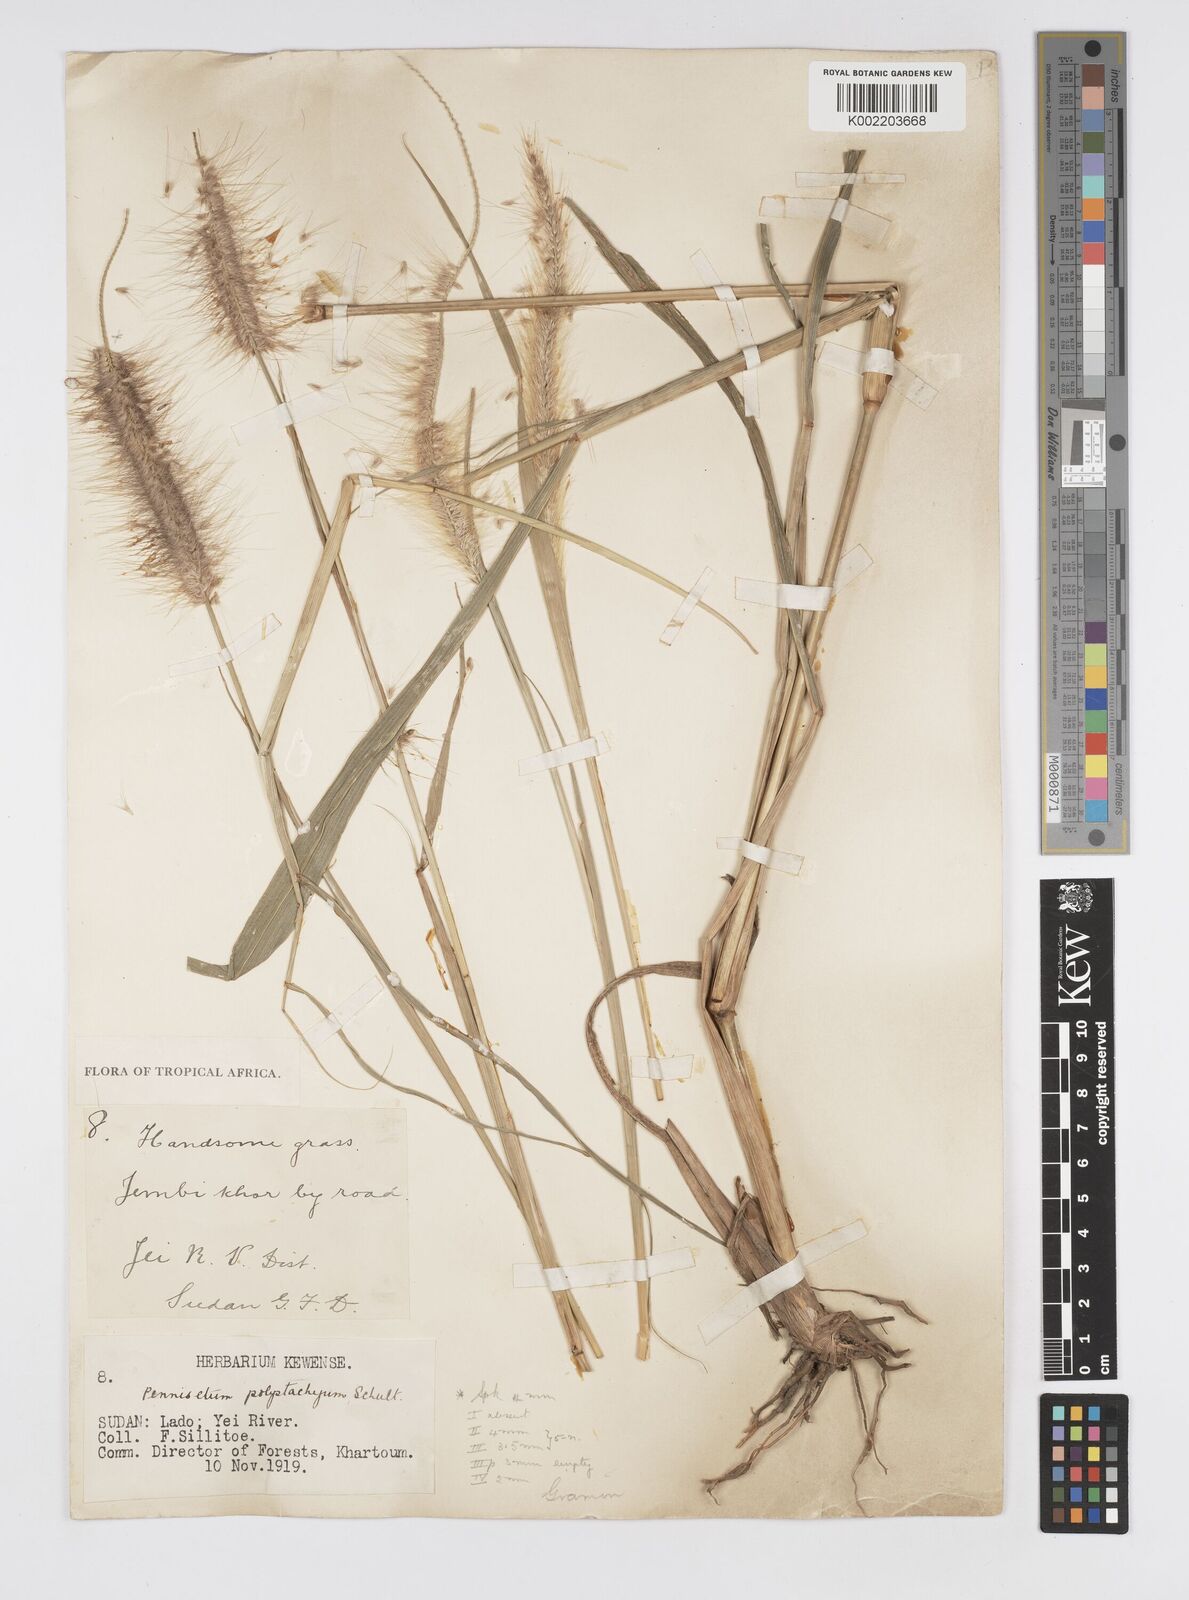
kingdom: Plantae
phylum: Tracheophyta
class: Liliopsida
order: Poales
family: Poaceae
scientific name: Poaceae
